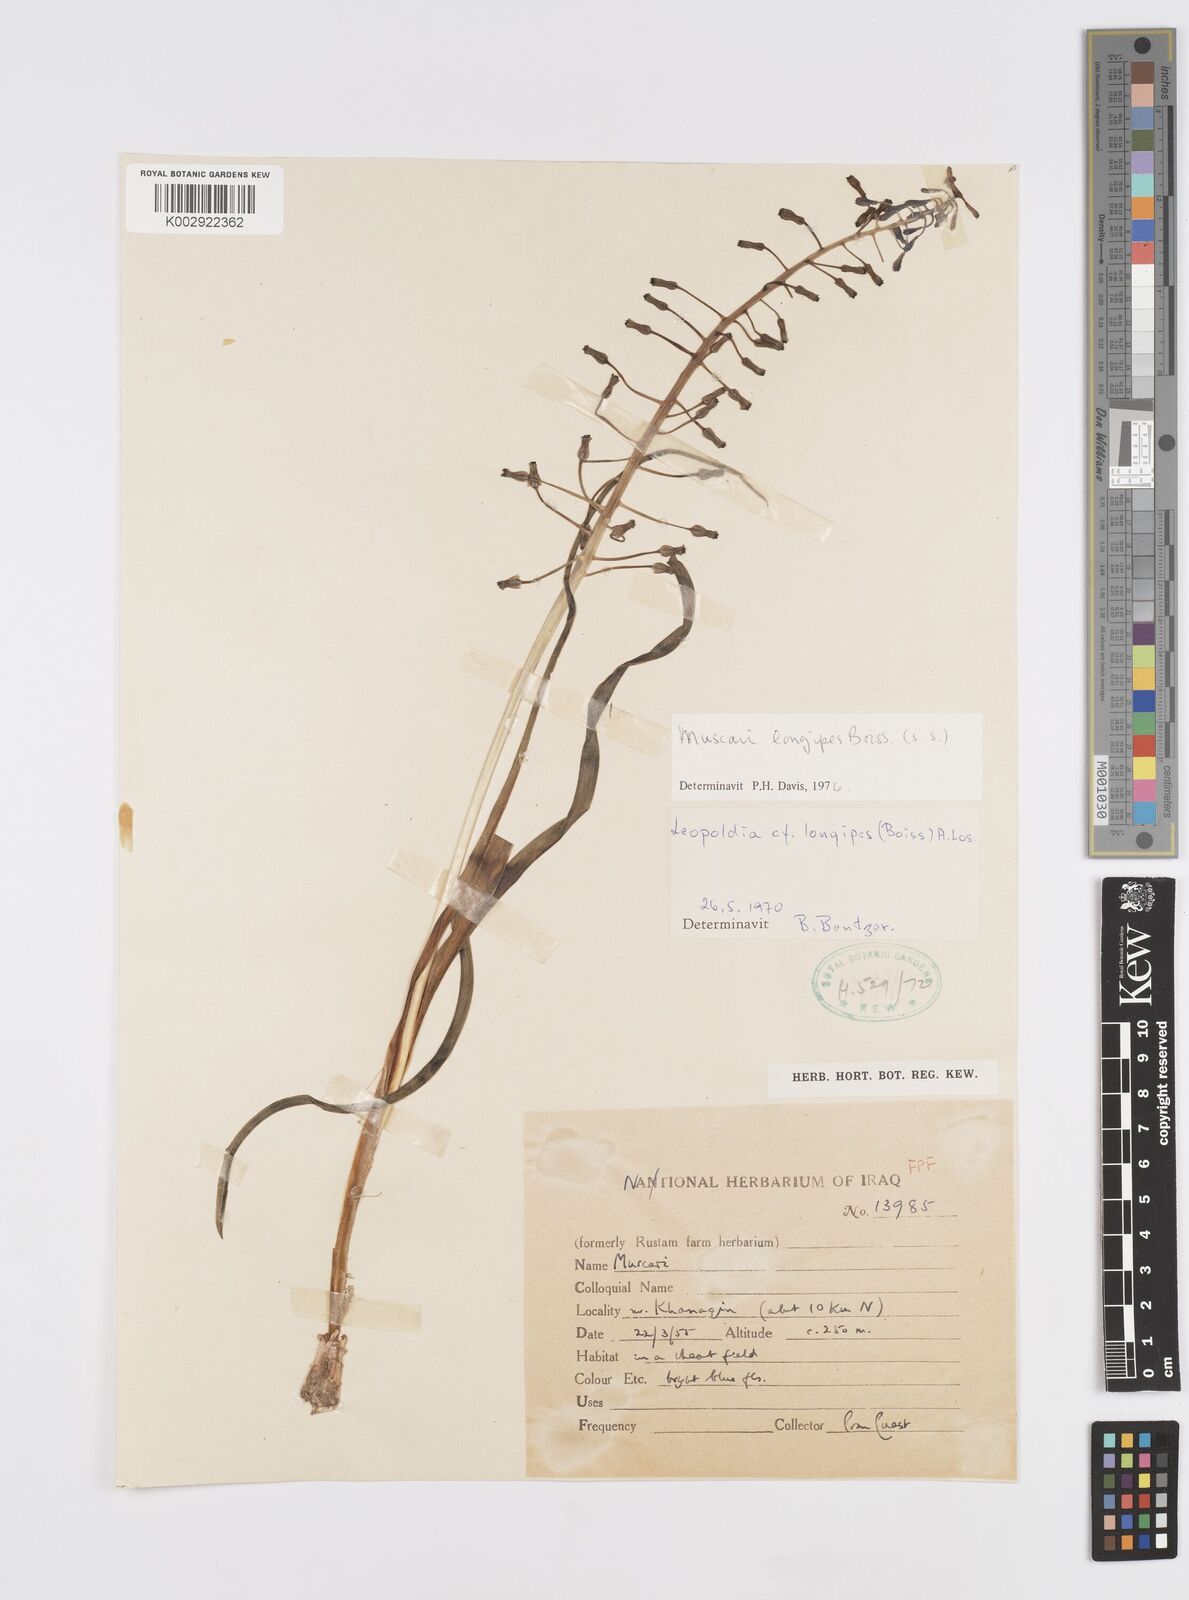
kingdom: Plantae
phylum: Tracheophyta
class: Liliopsida
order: Asparagales
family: Asparagaceae
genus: Muscari
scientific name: Muscari longipes
